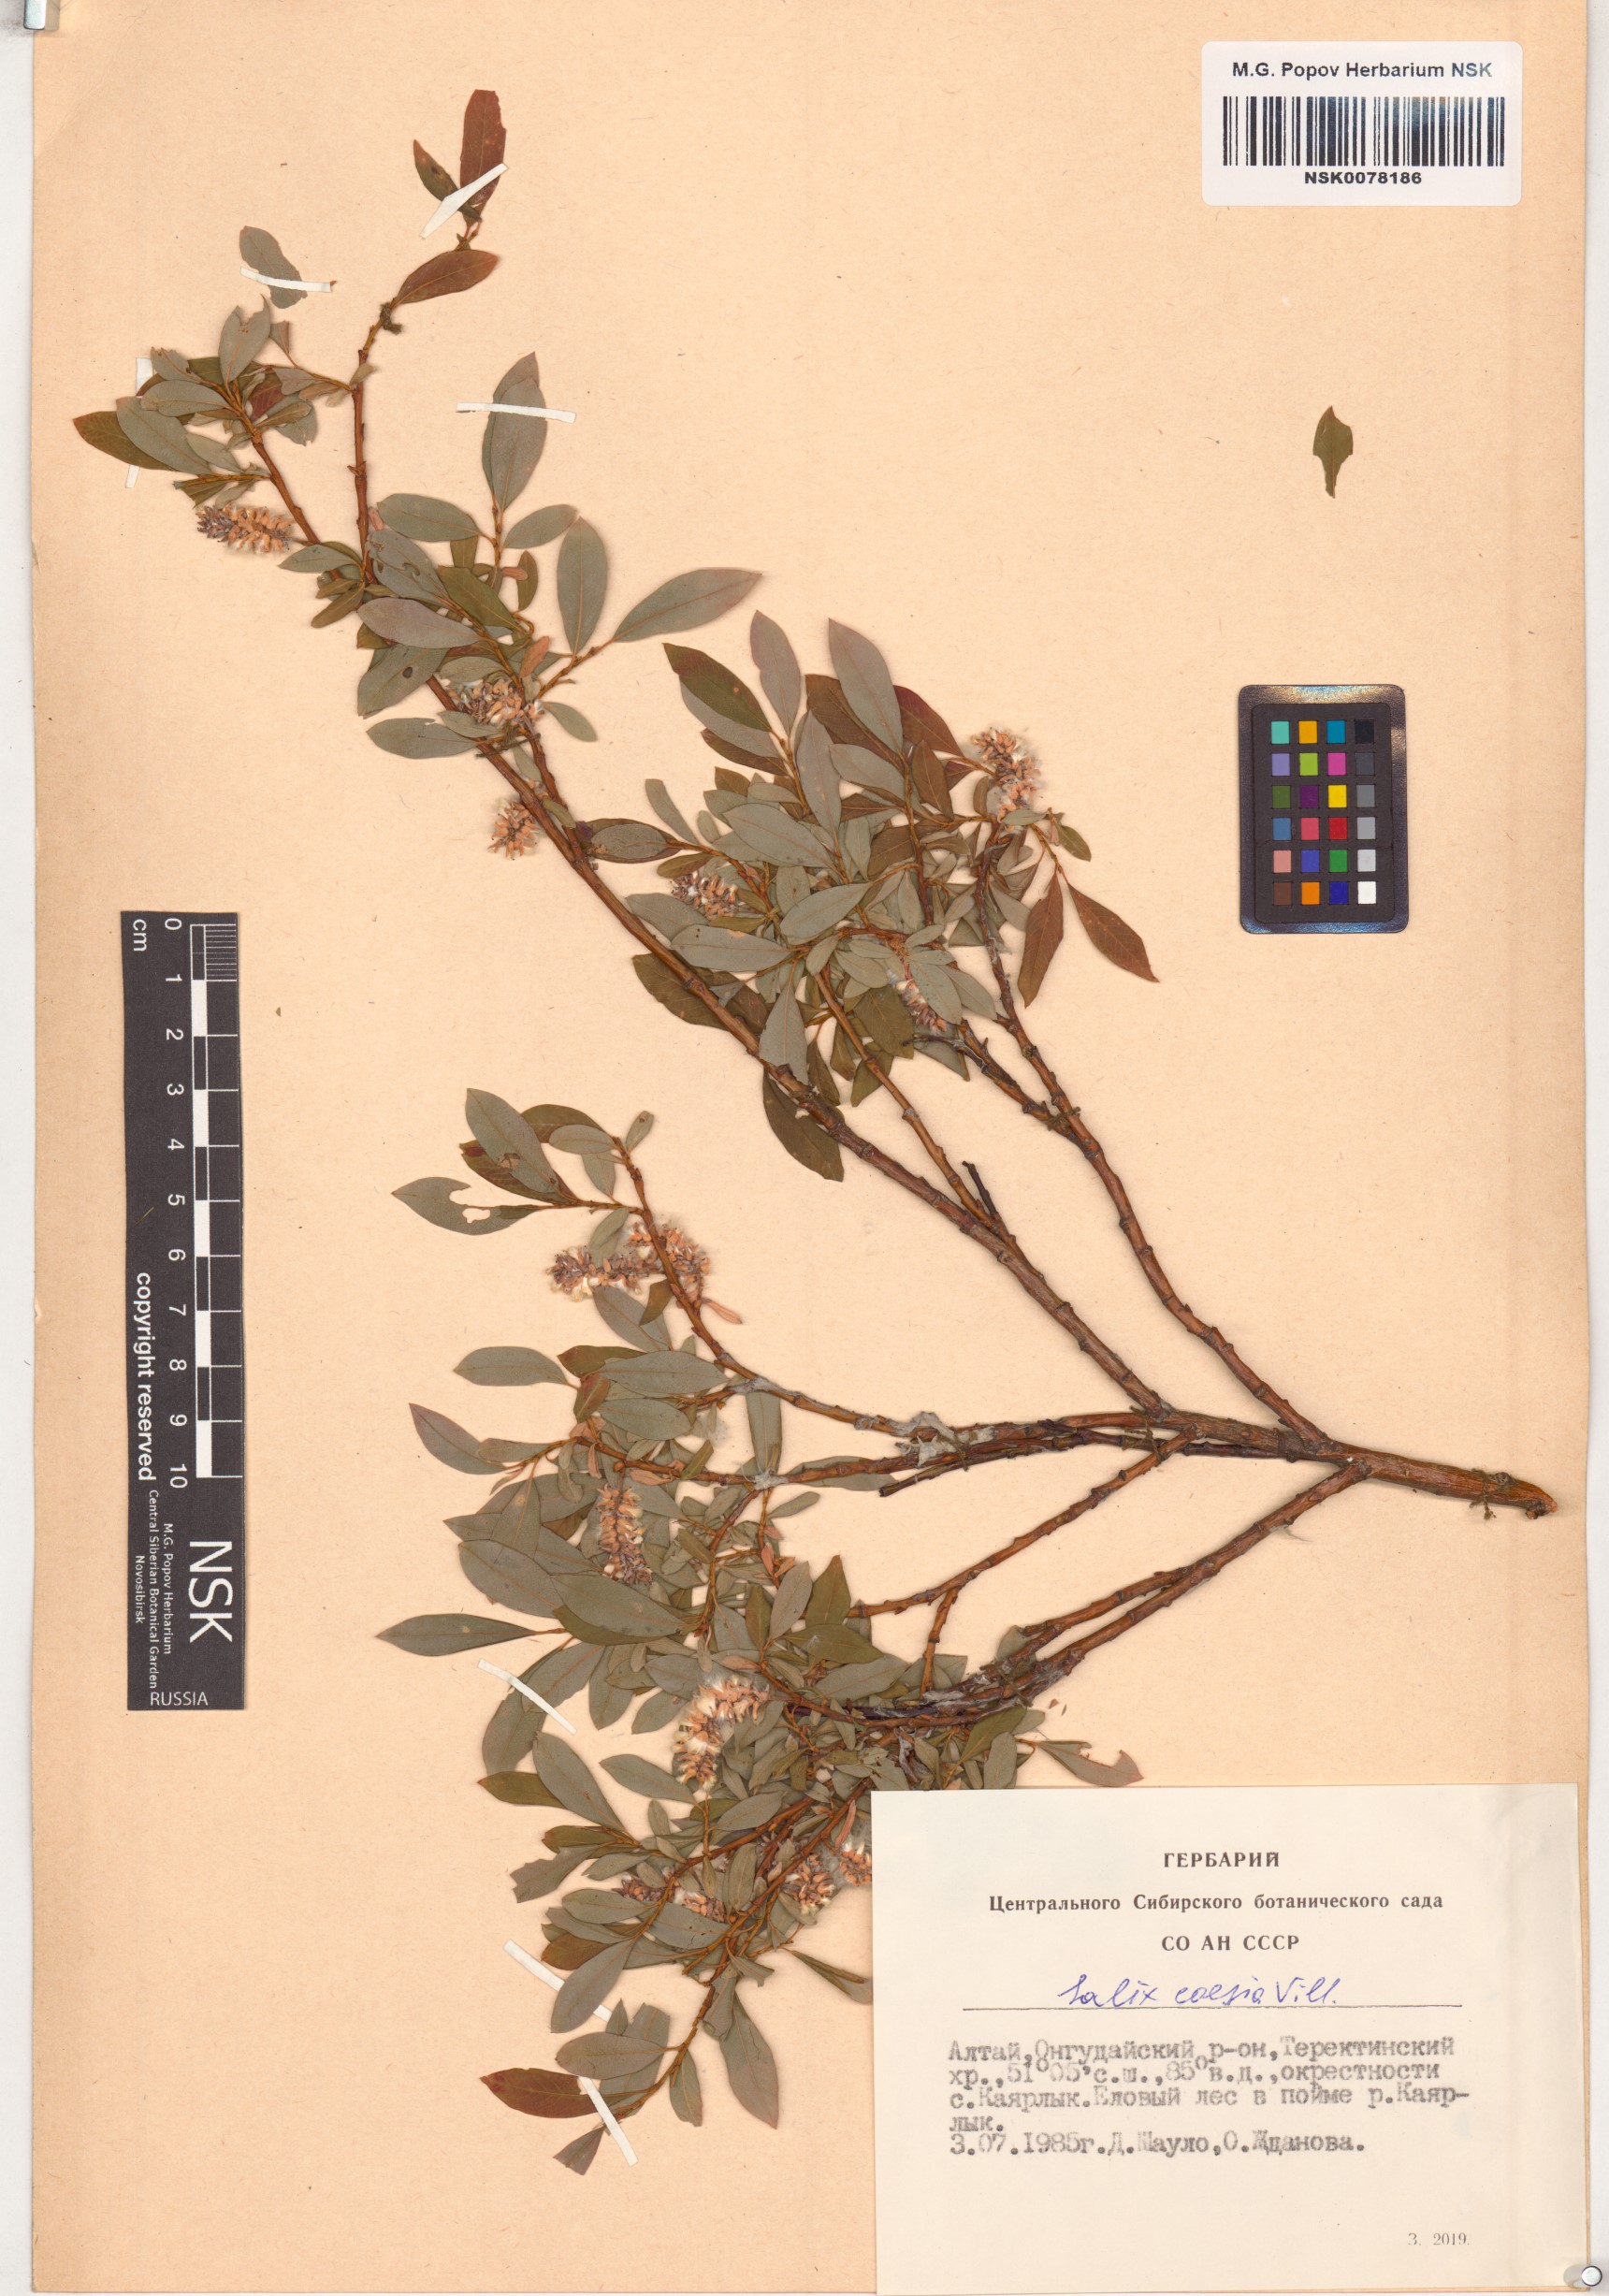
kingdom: Plantae
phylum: Tracheophyta
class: Magnoliopsida
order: Malpighiales
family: Salicaceae
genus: Salix
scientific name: Salix caesia
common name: Blue willow
